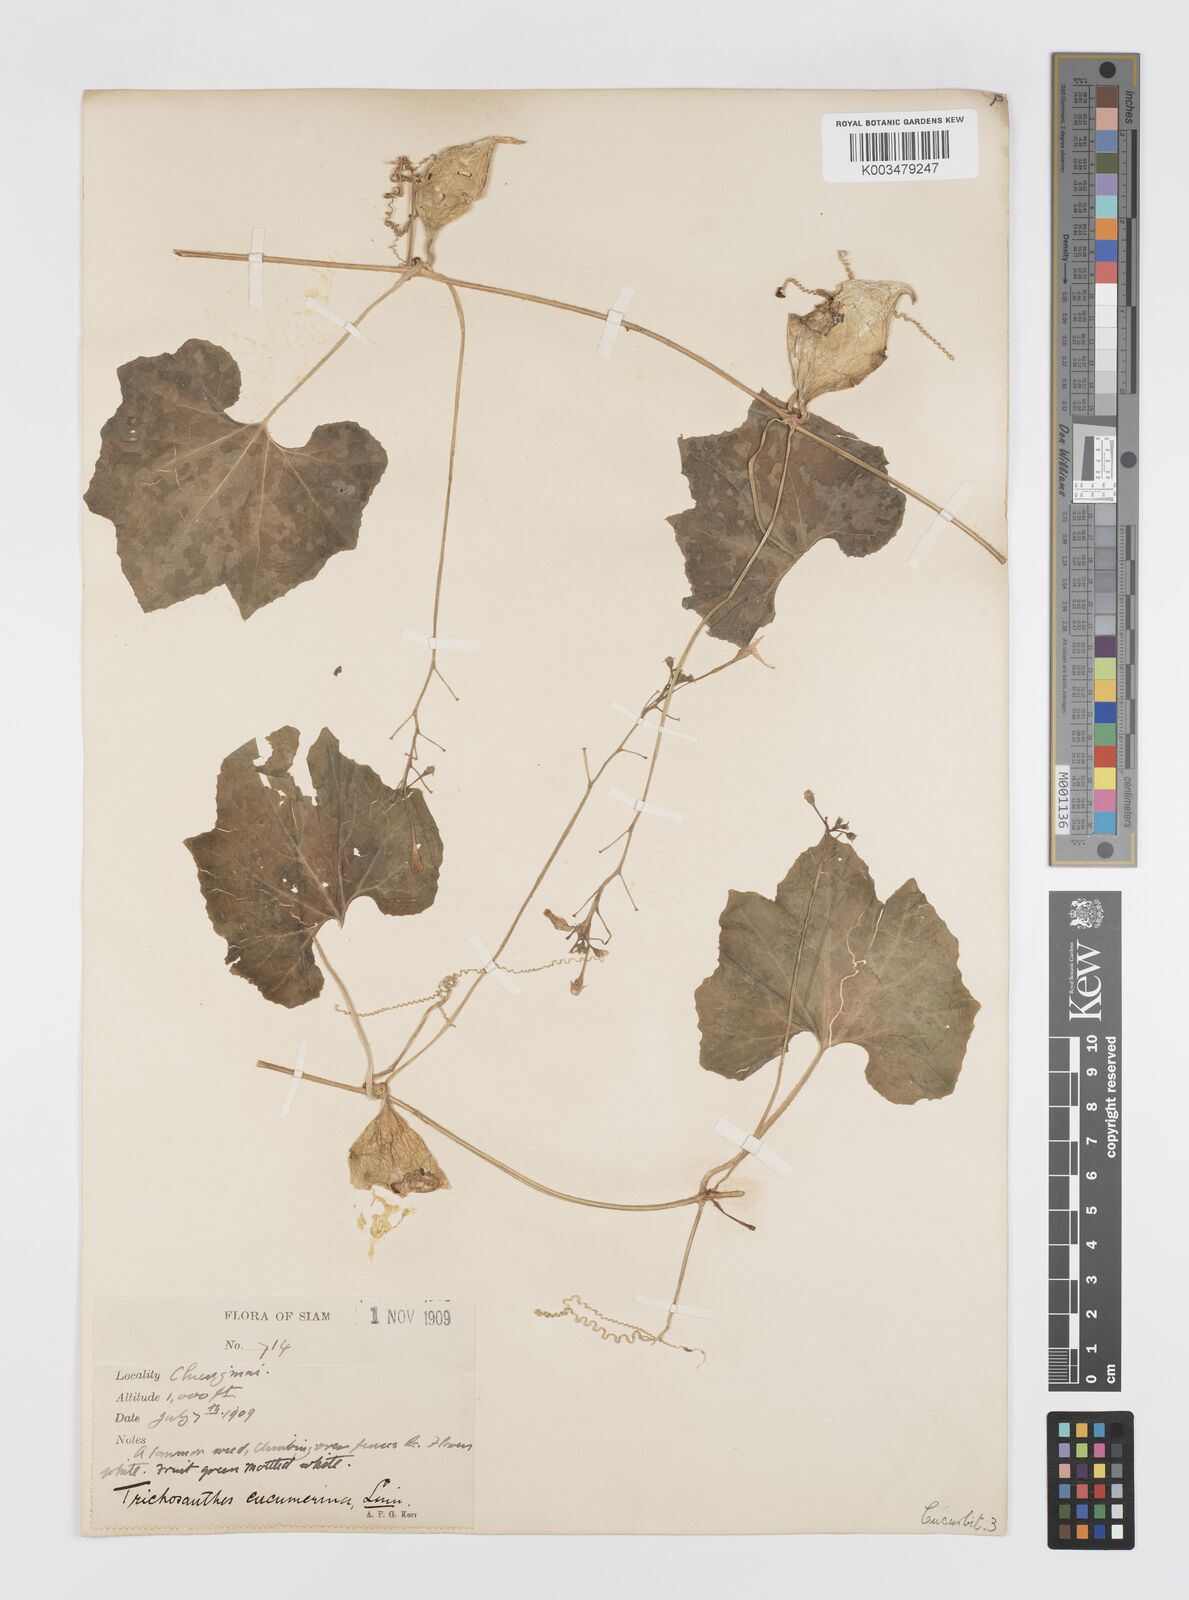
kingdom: Plantae
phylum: Tracheophyta
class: Magnoliopsida
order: Cucurbitales
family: Cucurbitaceae
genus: Trichosanthes
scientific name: Trichosanthes cucumerina
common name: Snakegourd
